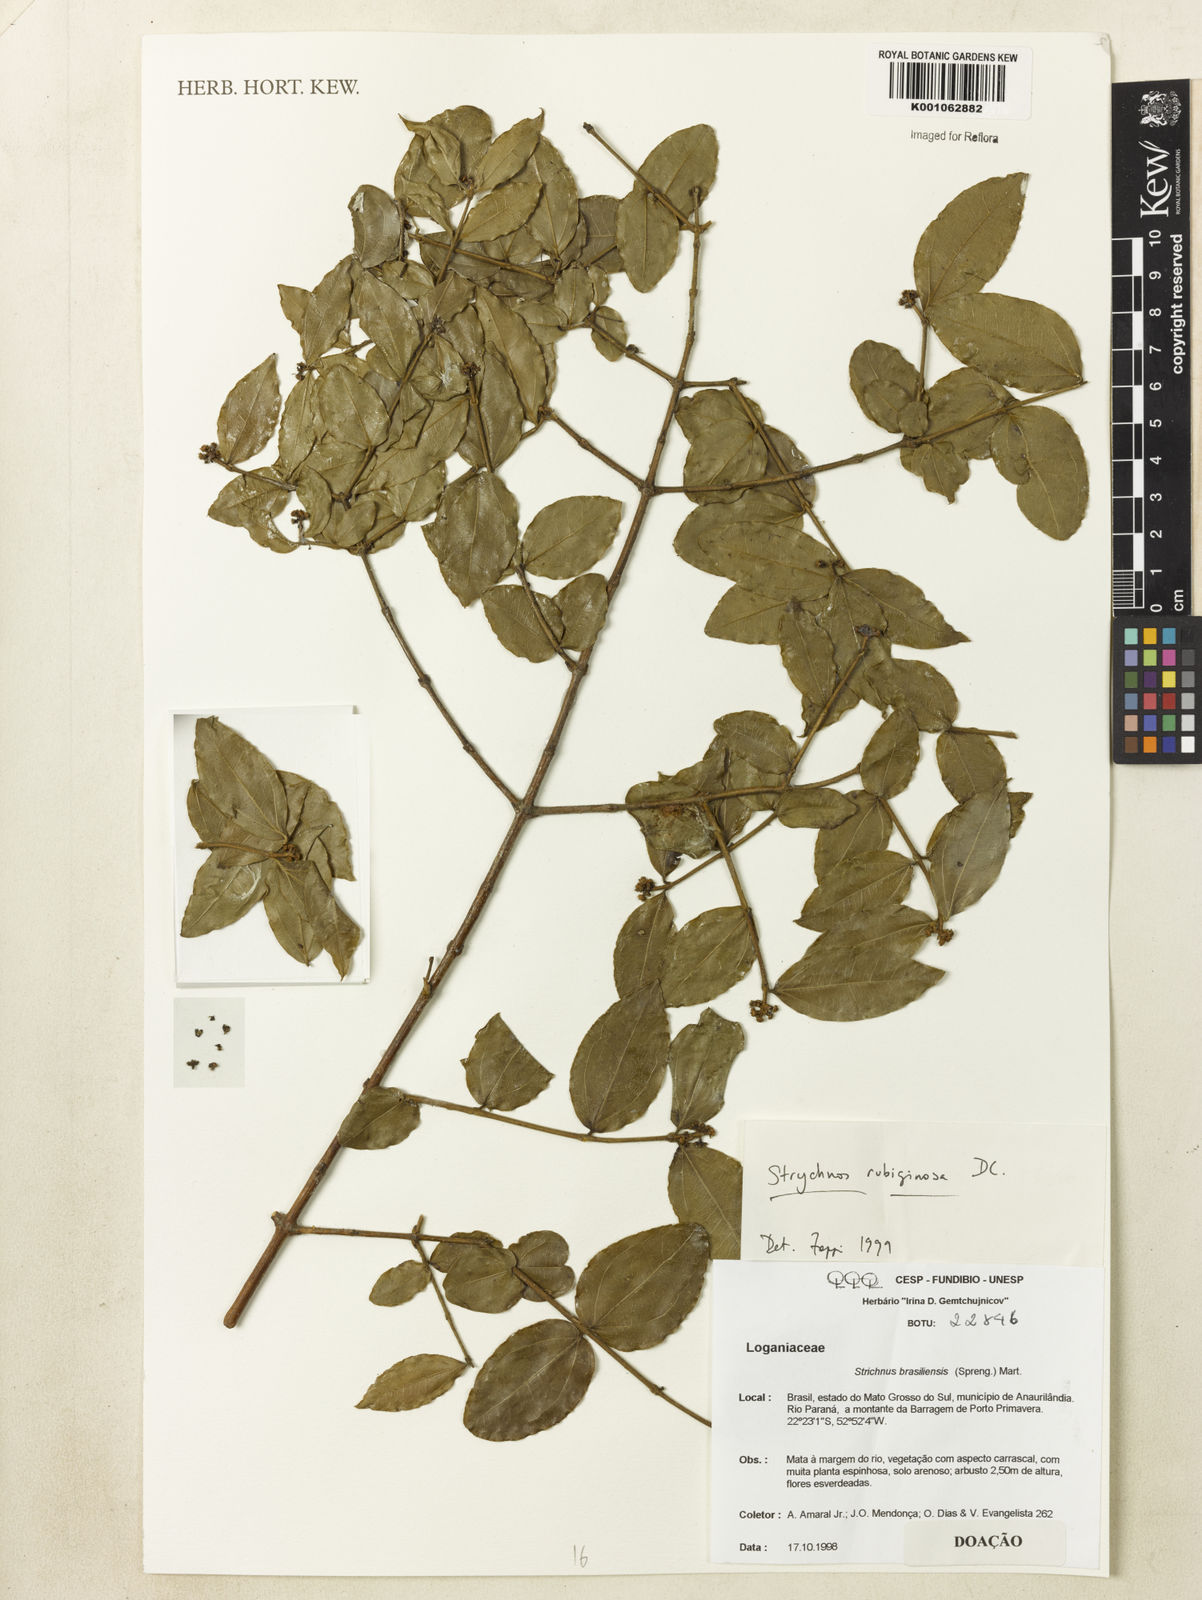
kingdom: Plantae
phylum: Tracheophyta
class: Magnoliopsida
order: Gentianales
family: Loganiaceae
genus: Strychnos
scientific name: Strychnos rubiginosa
